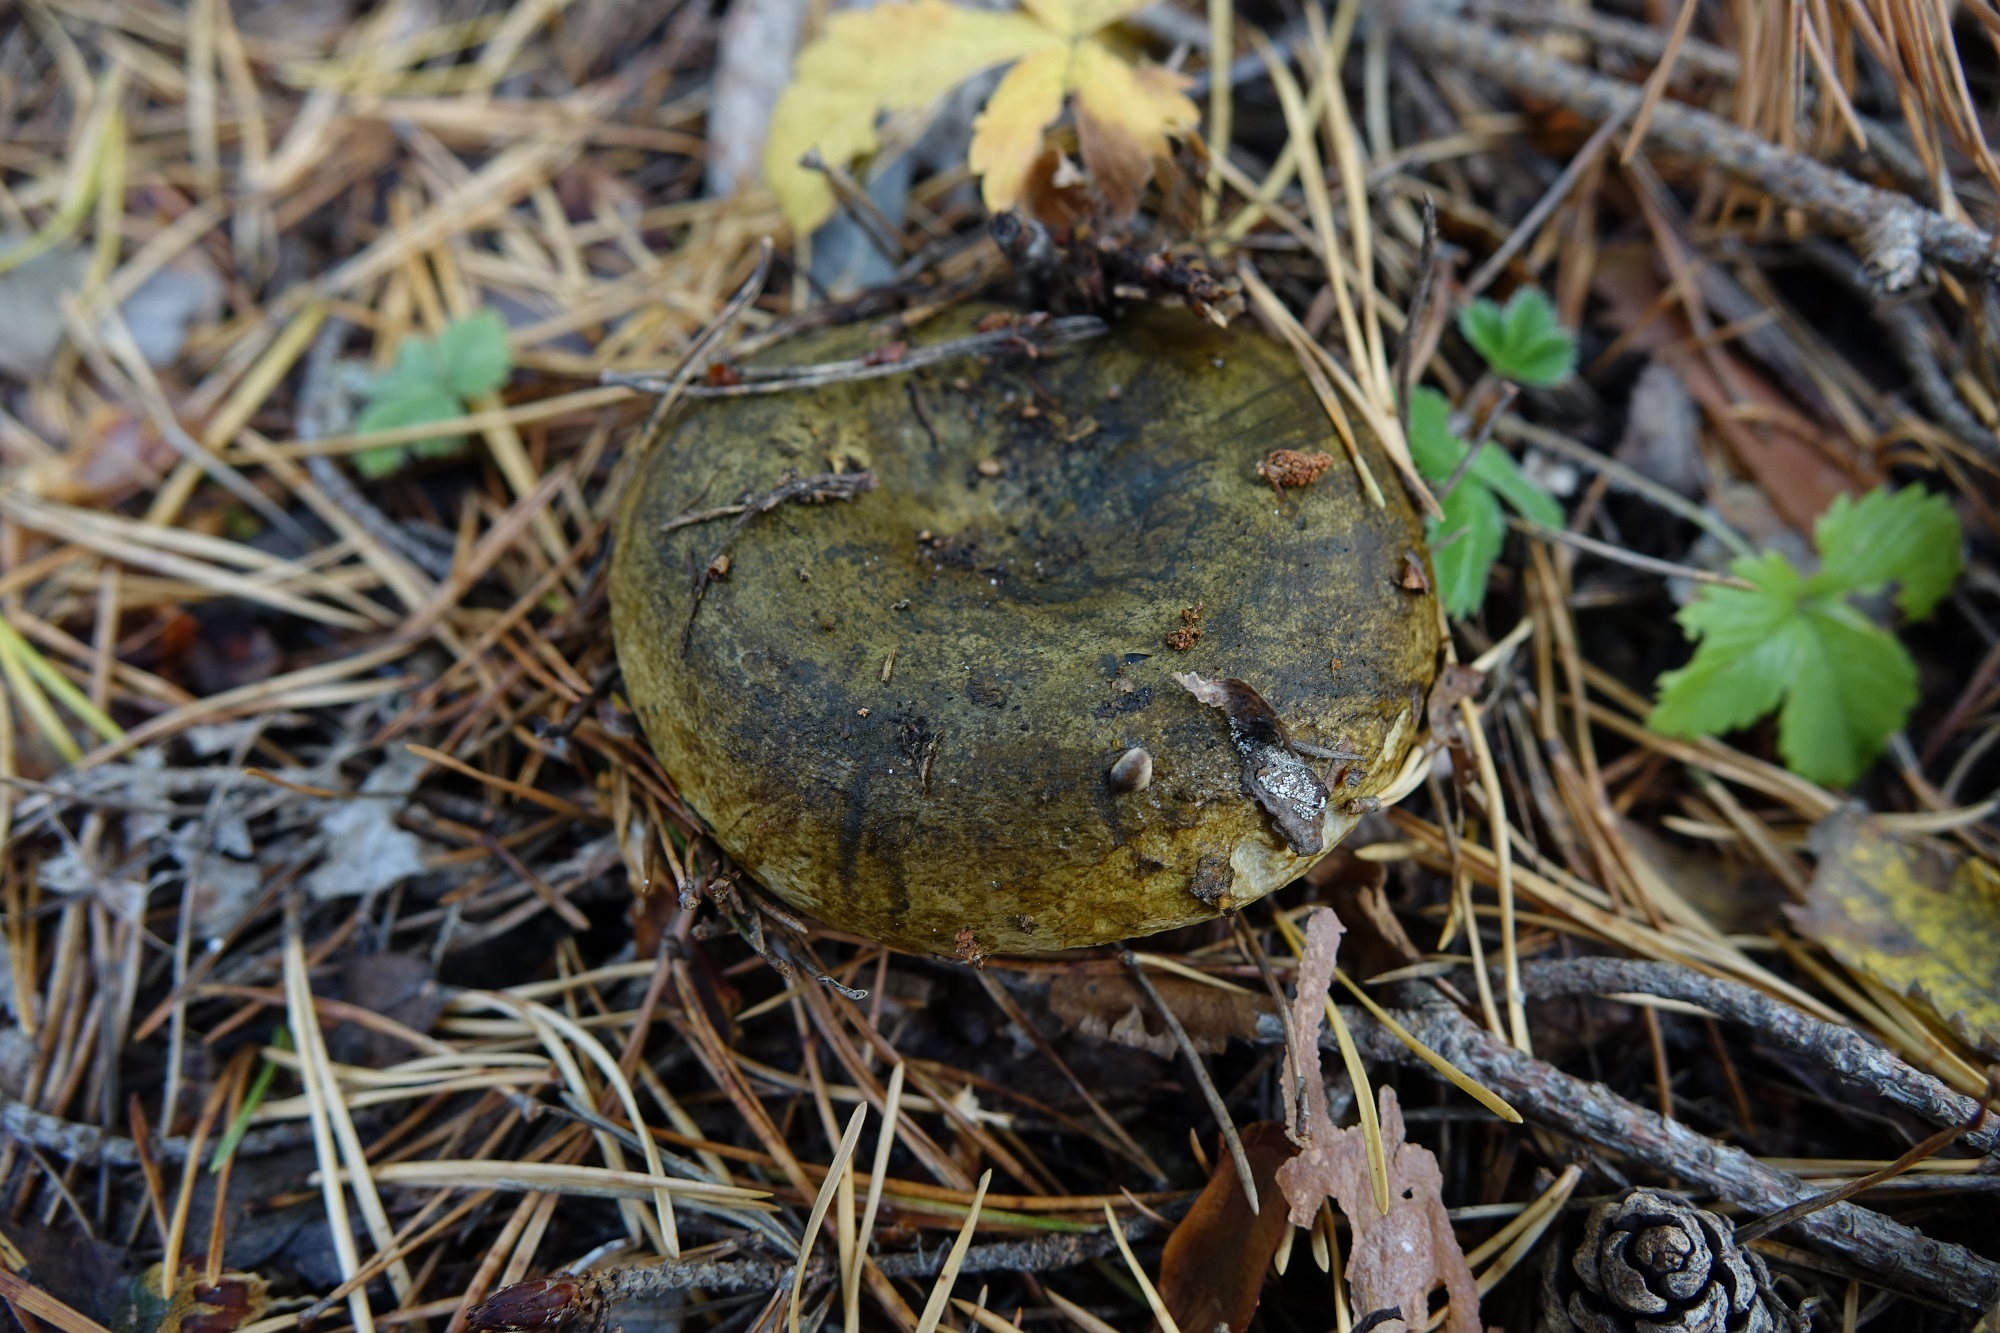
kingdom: Fungi
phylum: Basidiomycota
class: Agaricomycetes
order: Russulales
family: Russulaceae
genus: Lactarius
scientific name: Lactarius turpis
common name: Ugly milk-cap
